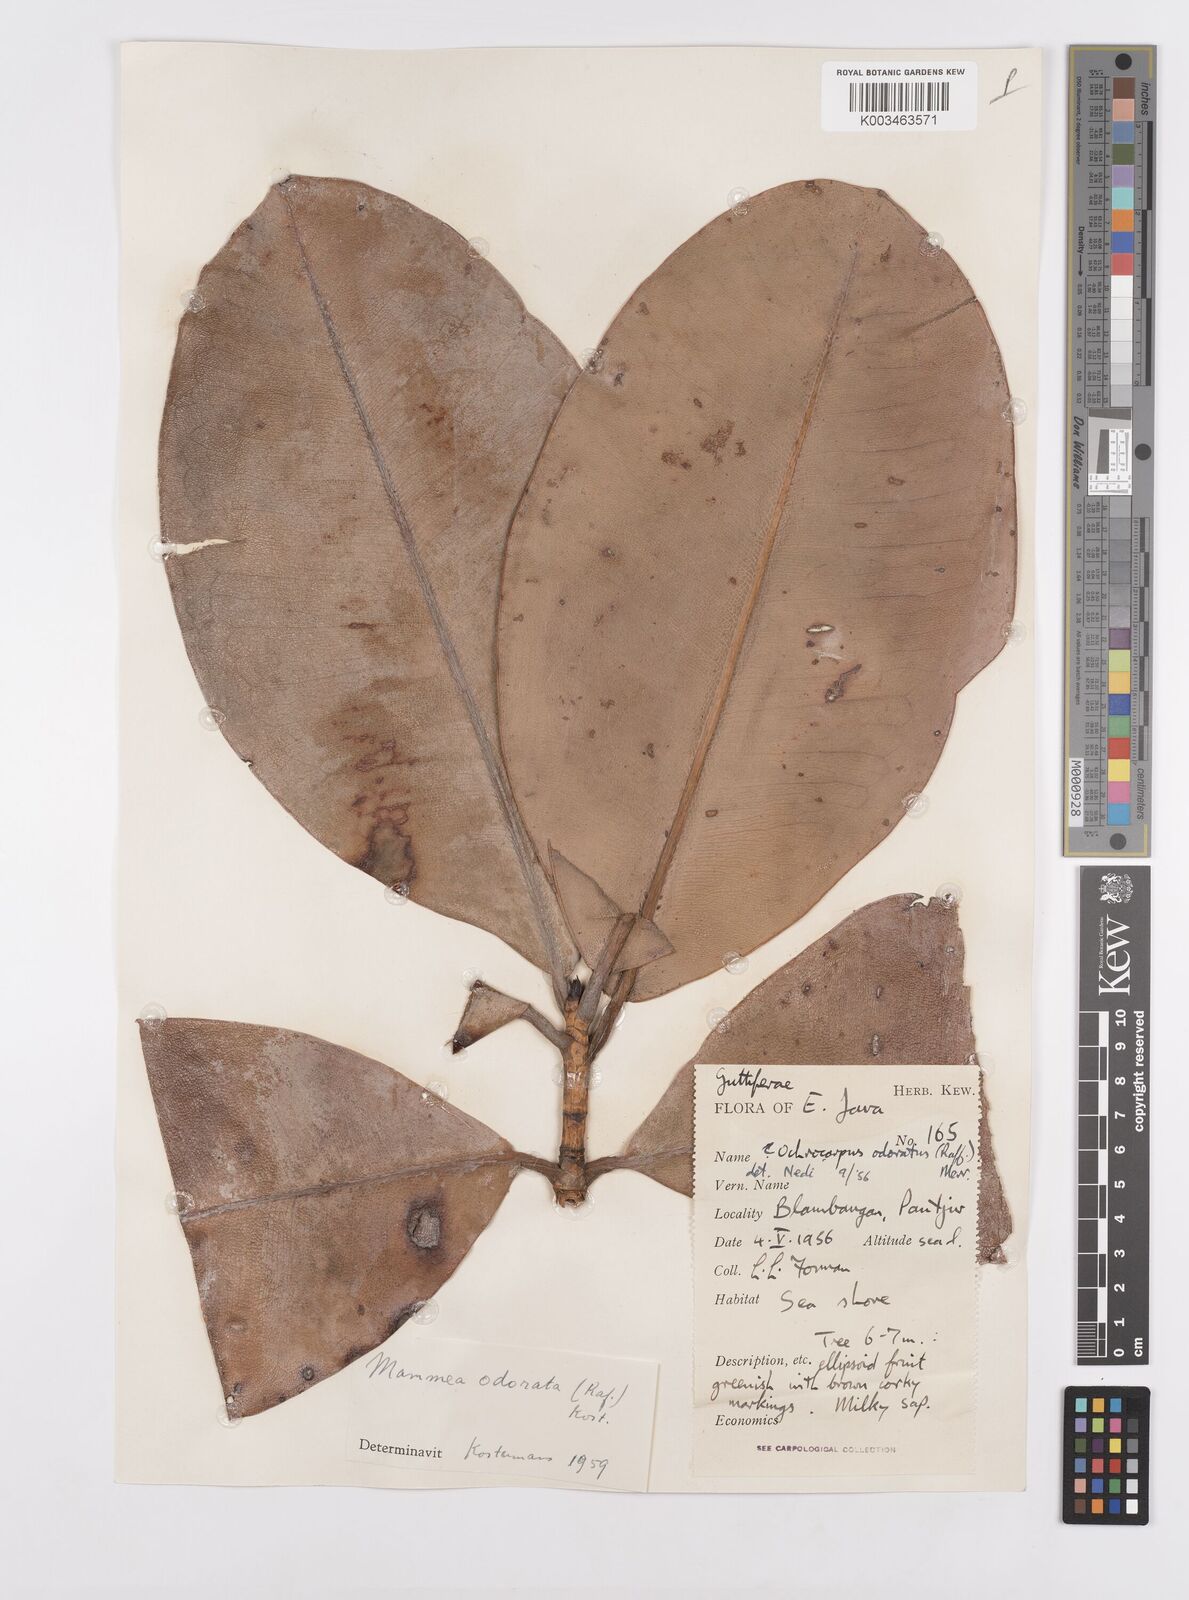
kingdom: Plantae
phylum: Tracheophyta
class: Magnoliopsida
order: Malpighiales
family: Calophyllaceae
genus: Mammea
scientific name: Mammea odorata
